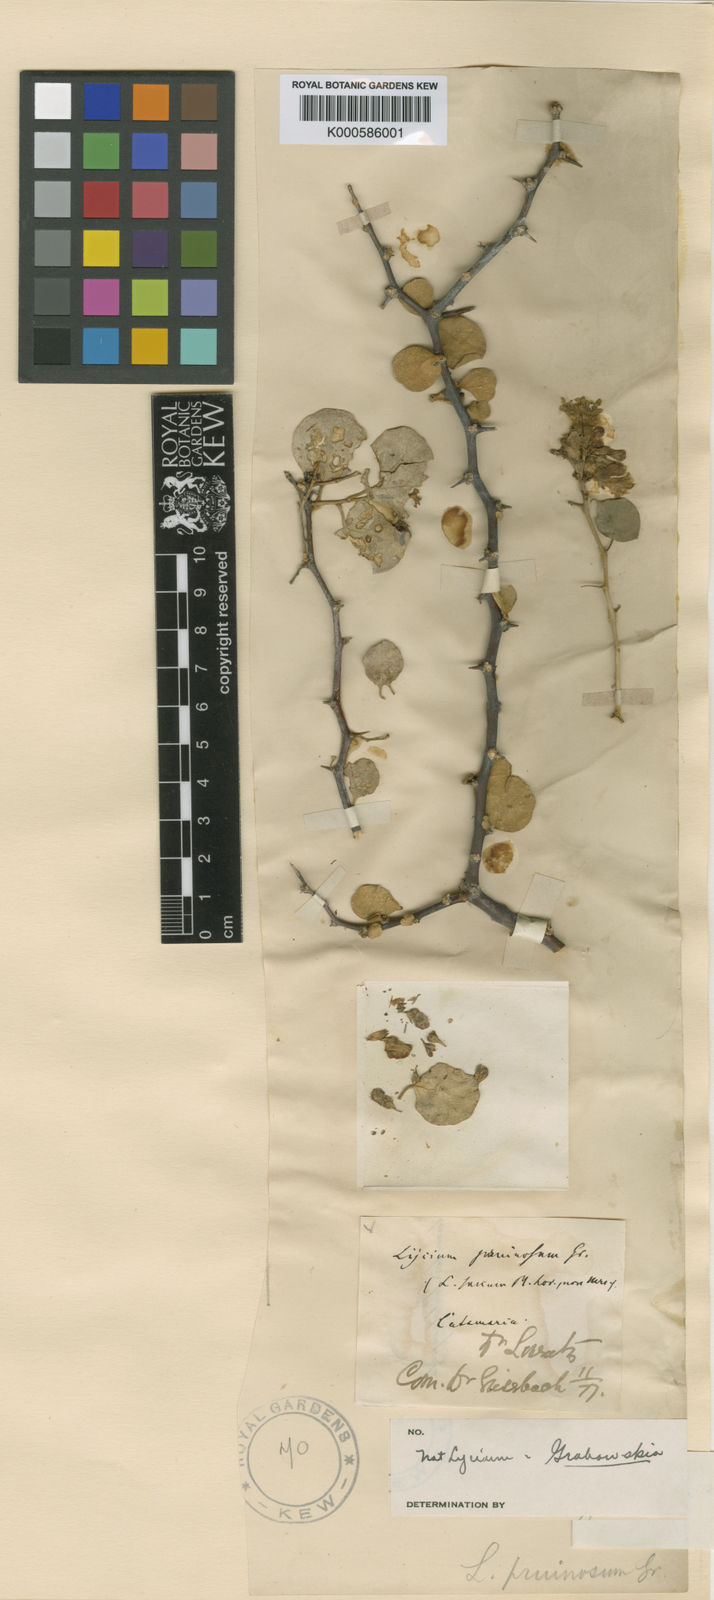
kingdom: Plantae
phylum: Tracheophyta
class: Magnoliopsida
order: Solanales
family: Solanaceae
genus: Lycium
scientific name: Lycium
